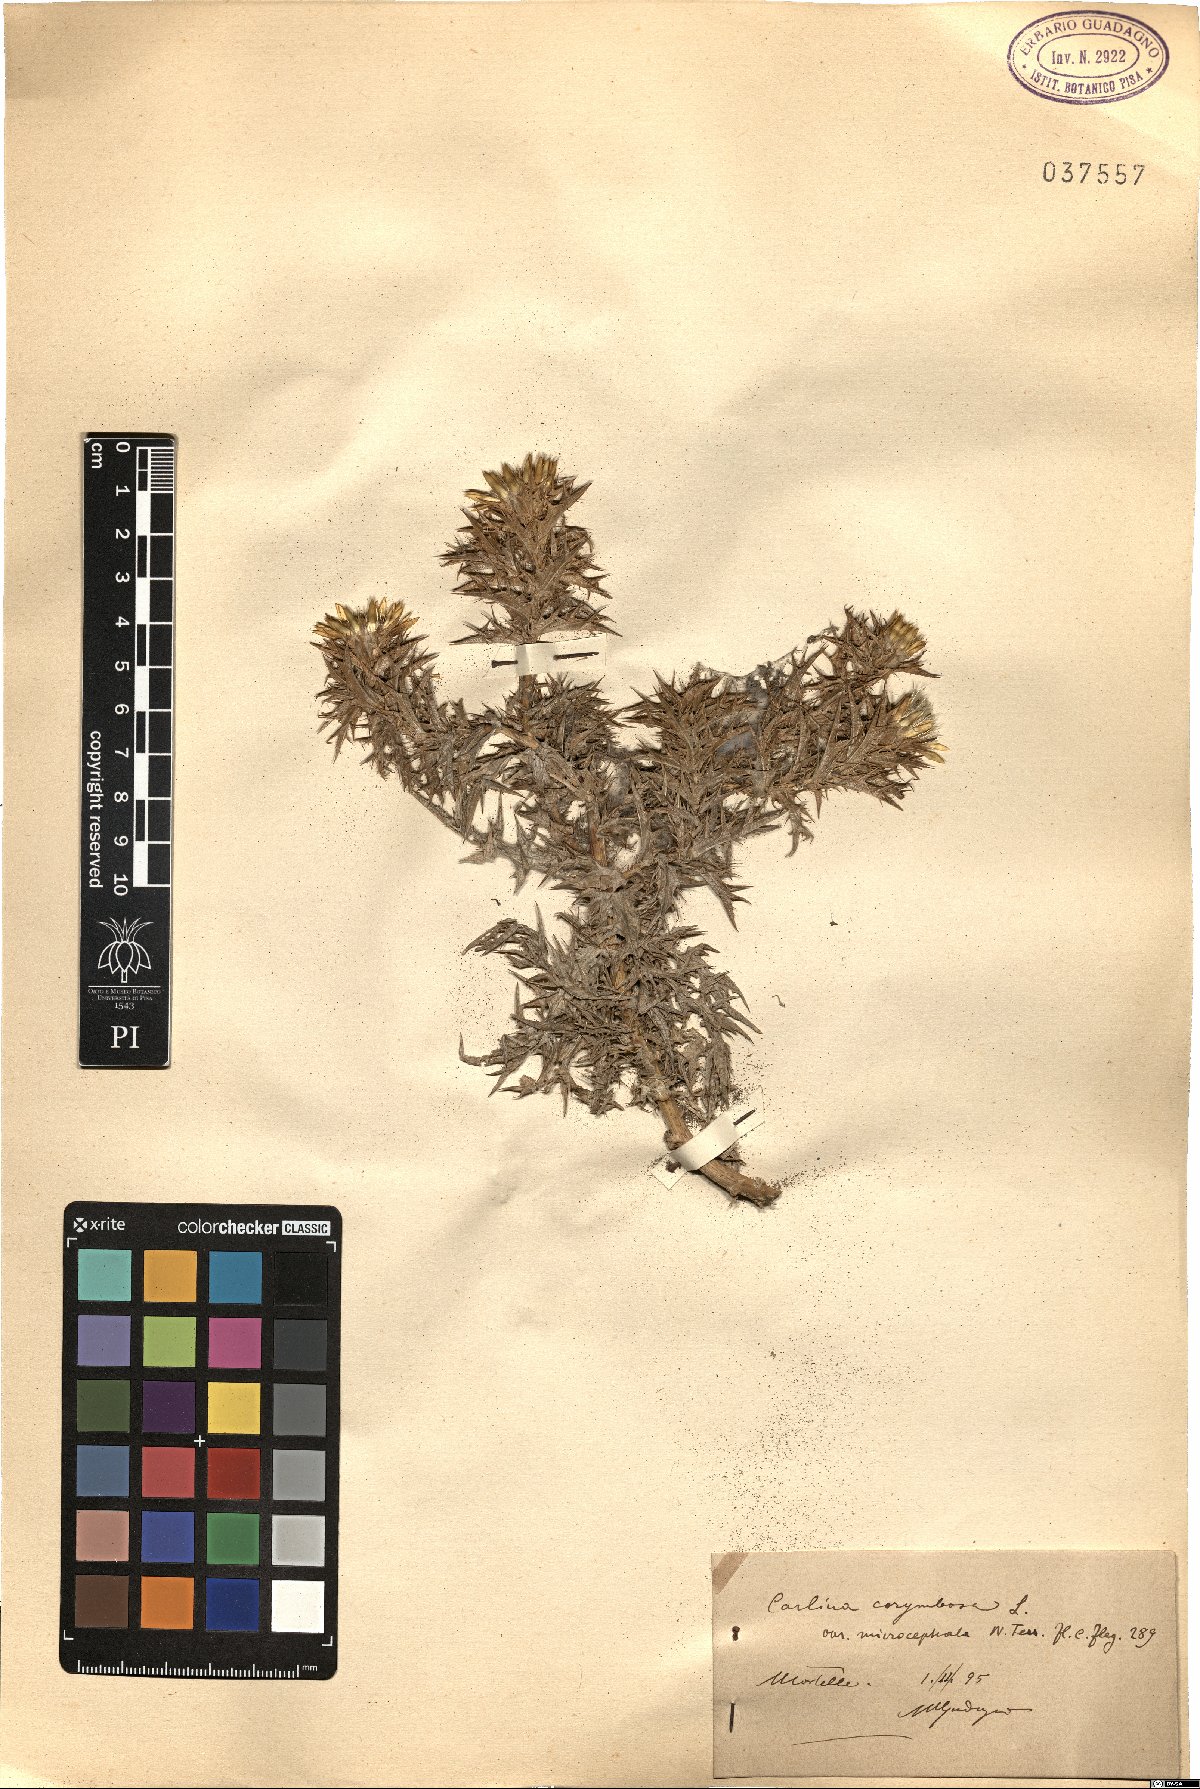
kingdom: Plantae
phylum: Tracheophyta
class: Magnoliopsida
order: Asterales
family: Asteraceae
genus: Carlina
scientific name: Carlina oligocephala
